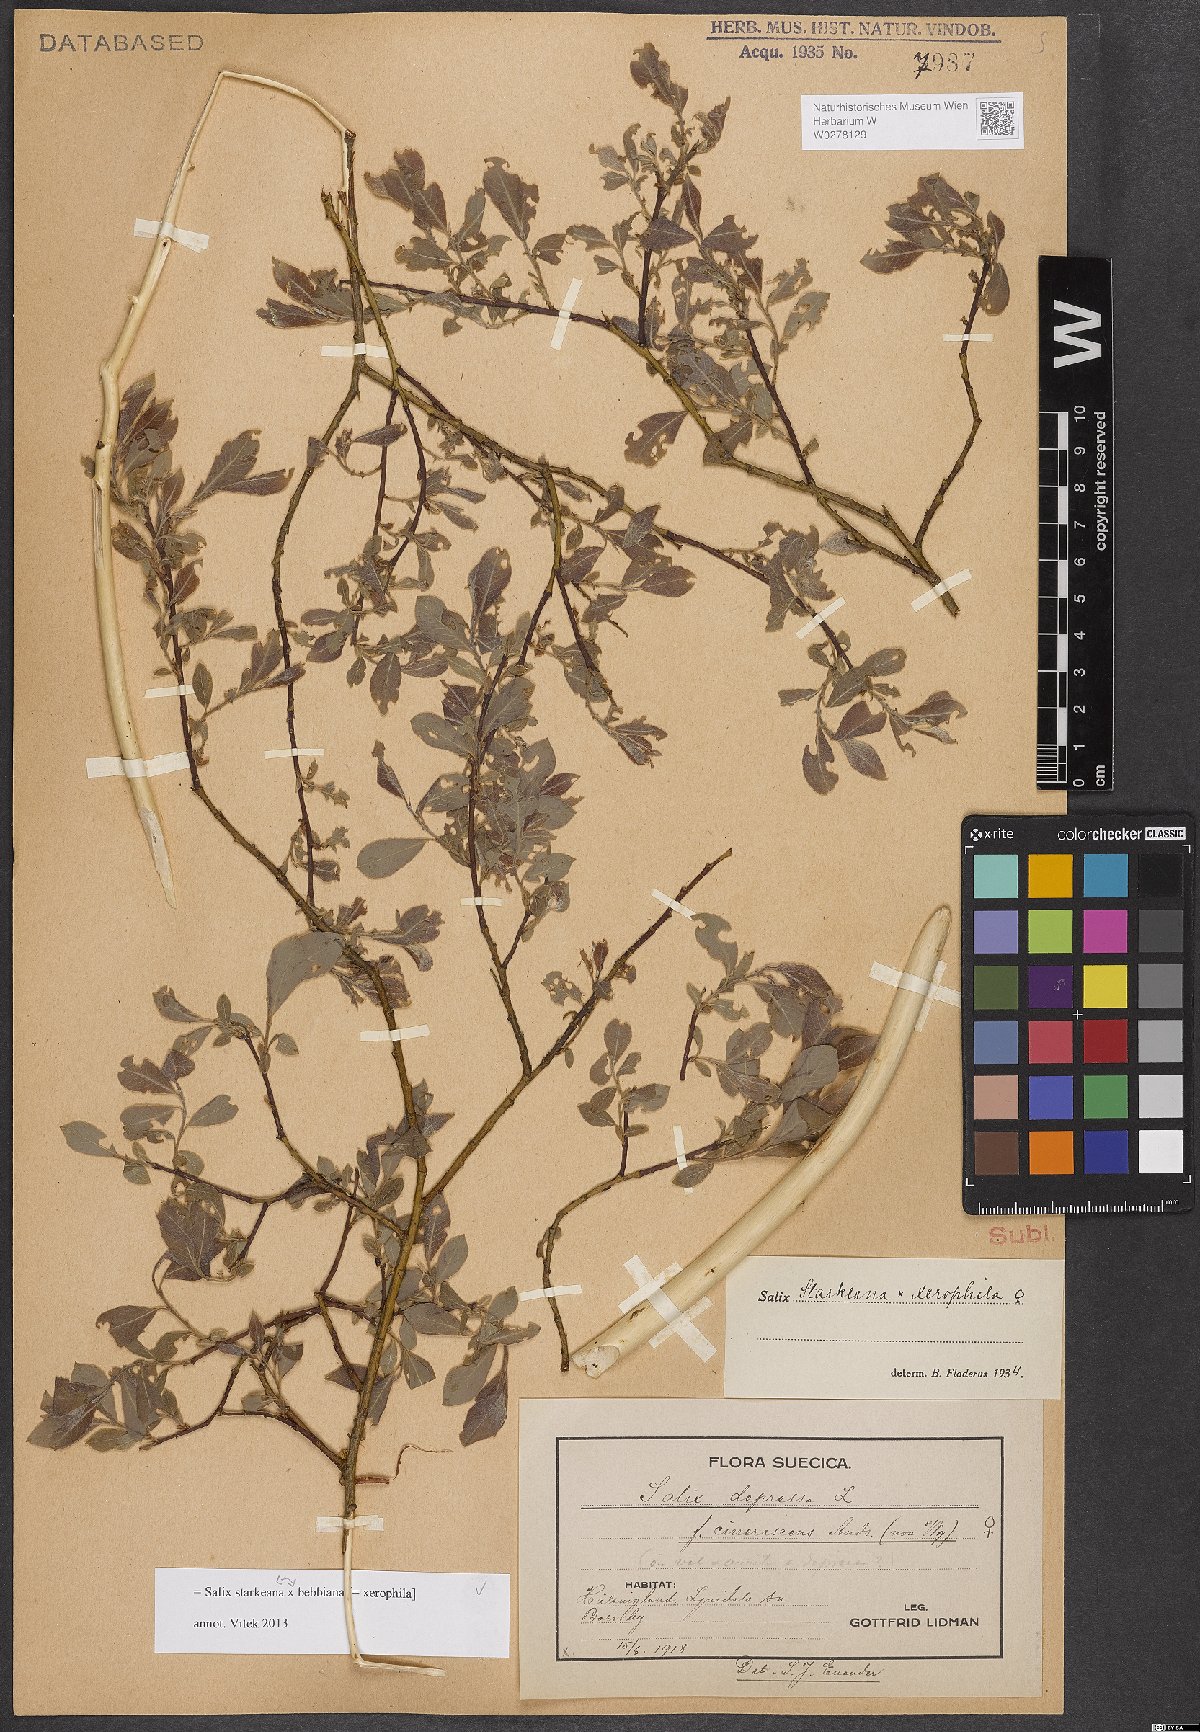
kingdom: Plantae
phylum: Tracheophyta
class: Magnoliopsida
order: Malpighiales
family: Salicaceae
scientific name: Salicaceae
